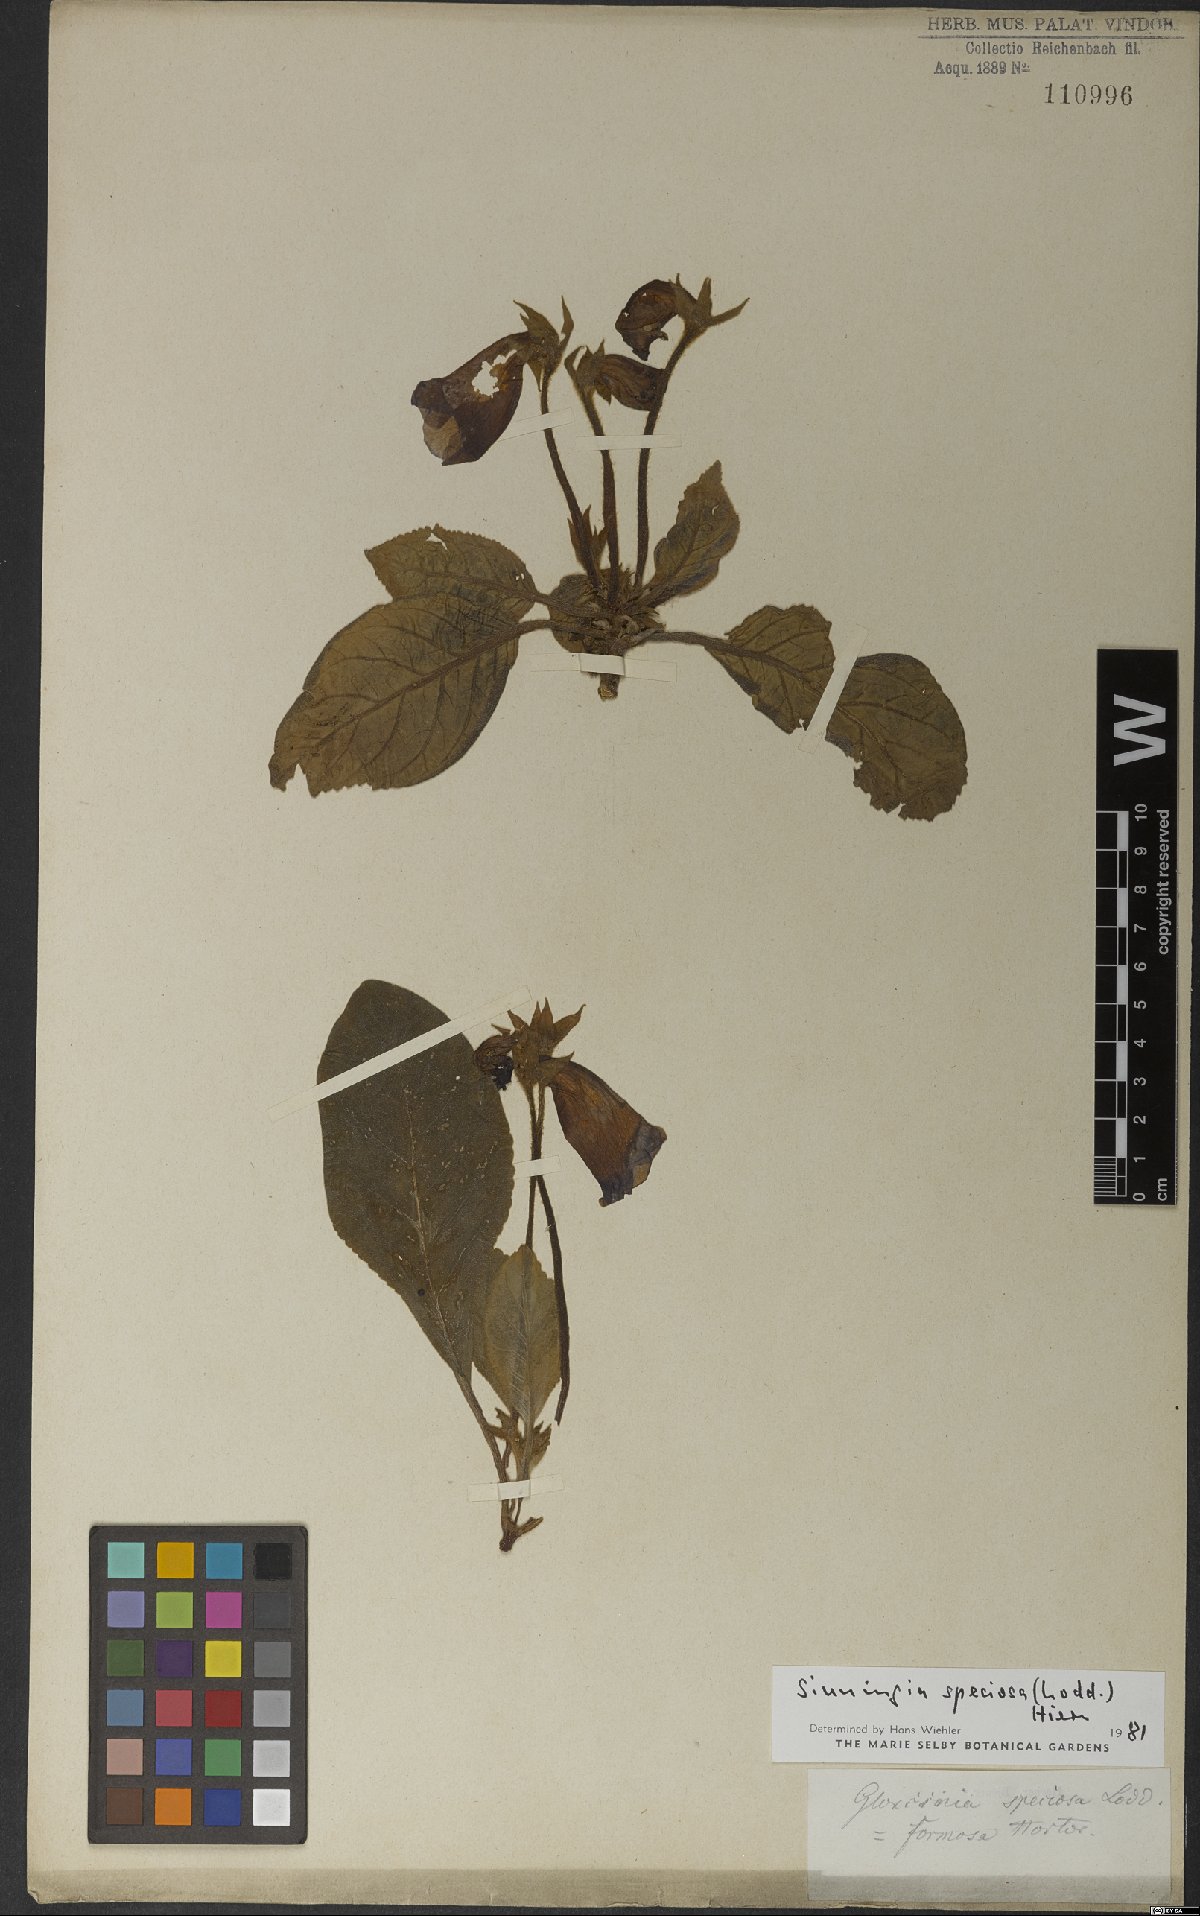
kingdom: Plantae
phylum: Tracheophyta
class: Magnoliopsida
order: Lamiales
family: Gesneriaceae
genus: Sinningia
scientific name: Sinningia speciosa
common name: Brazilian gloxinia
